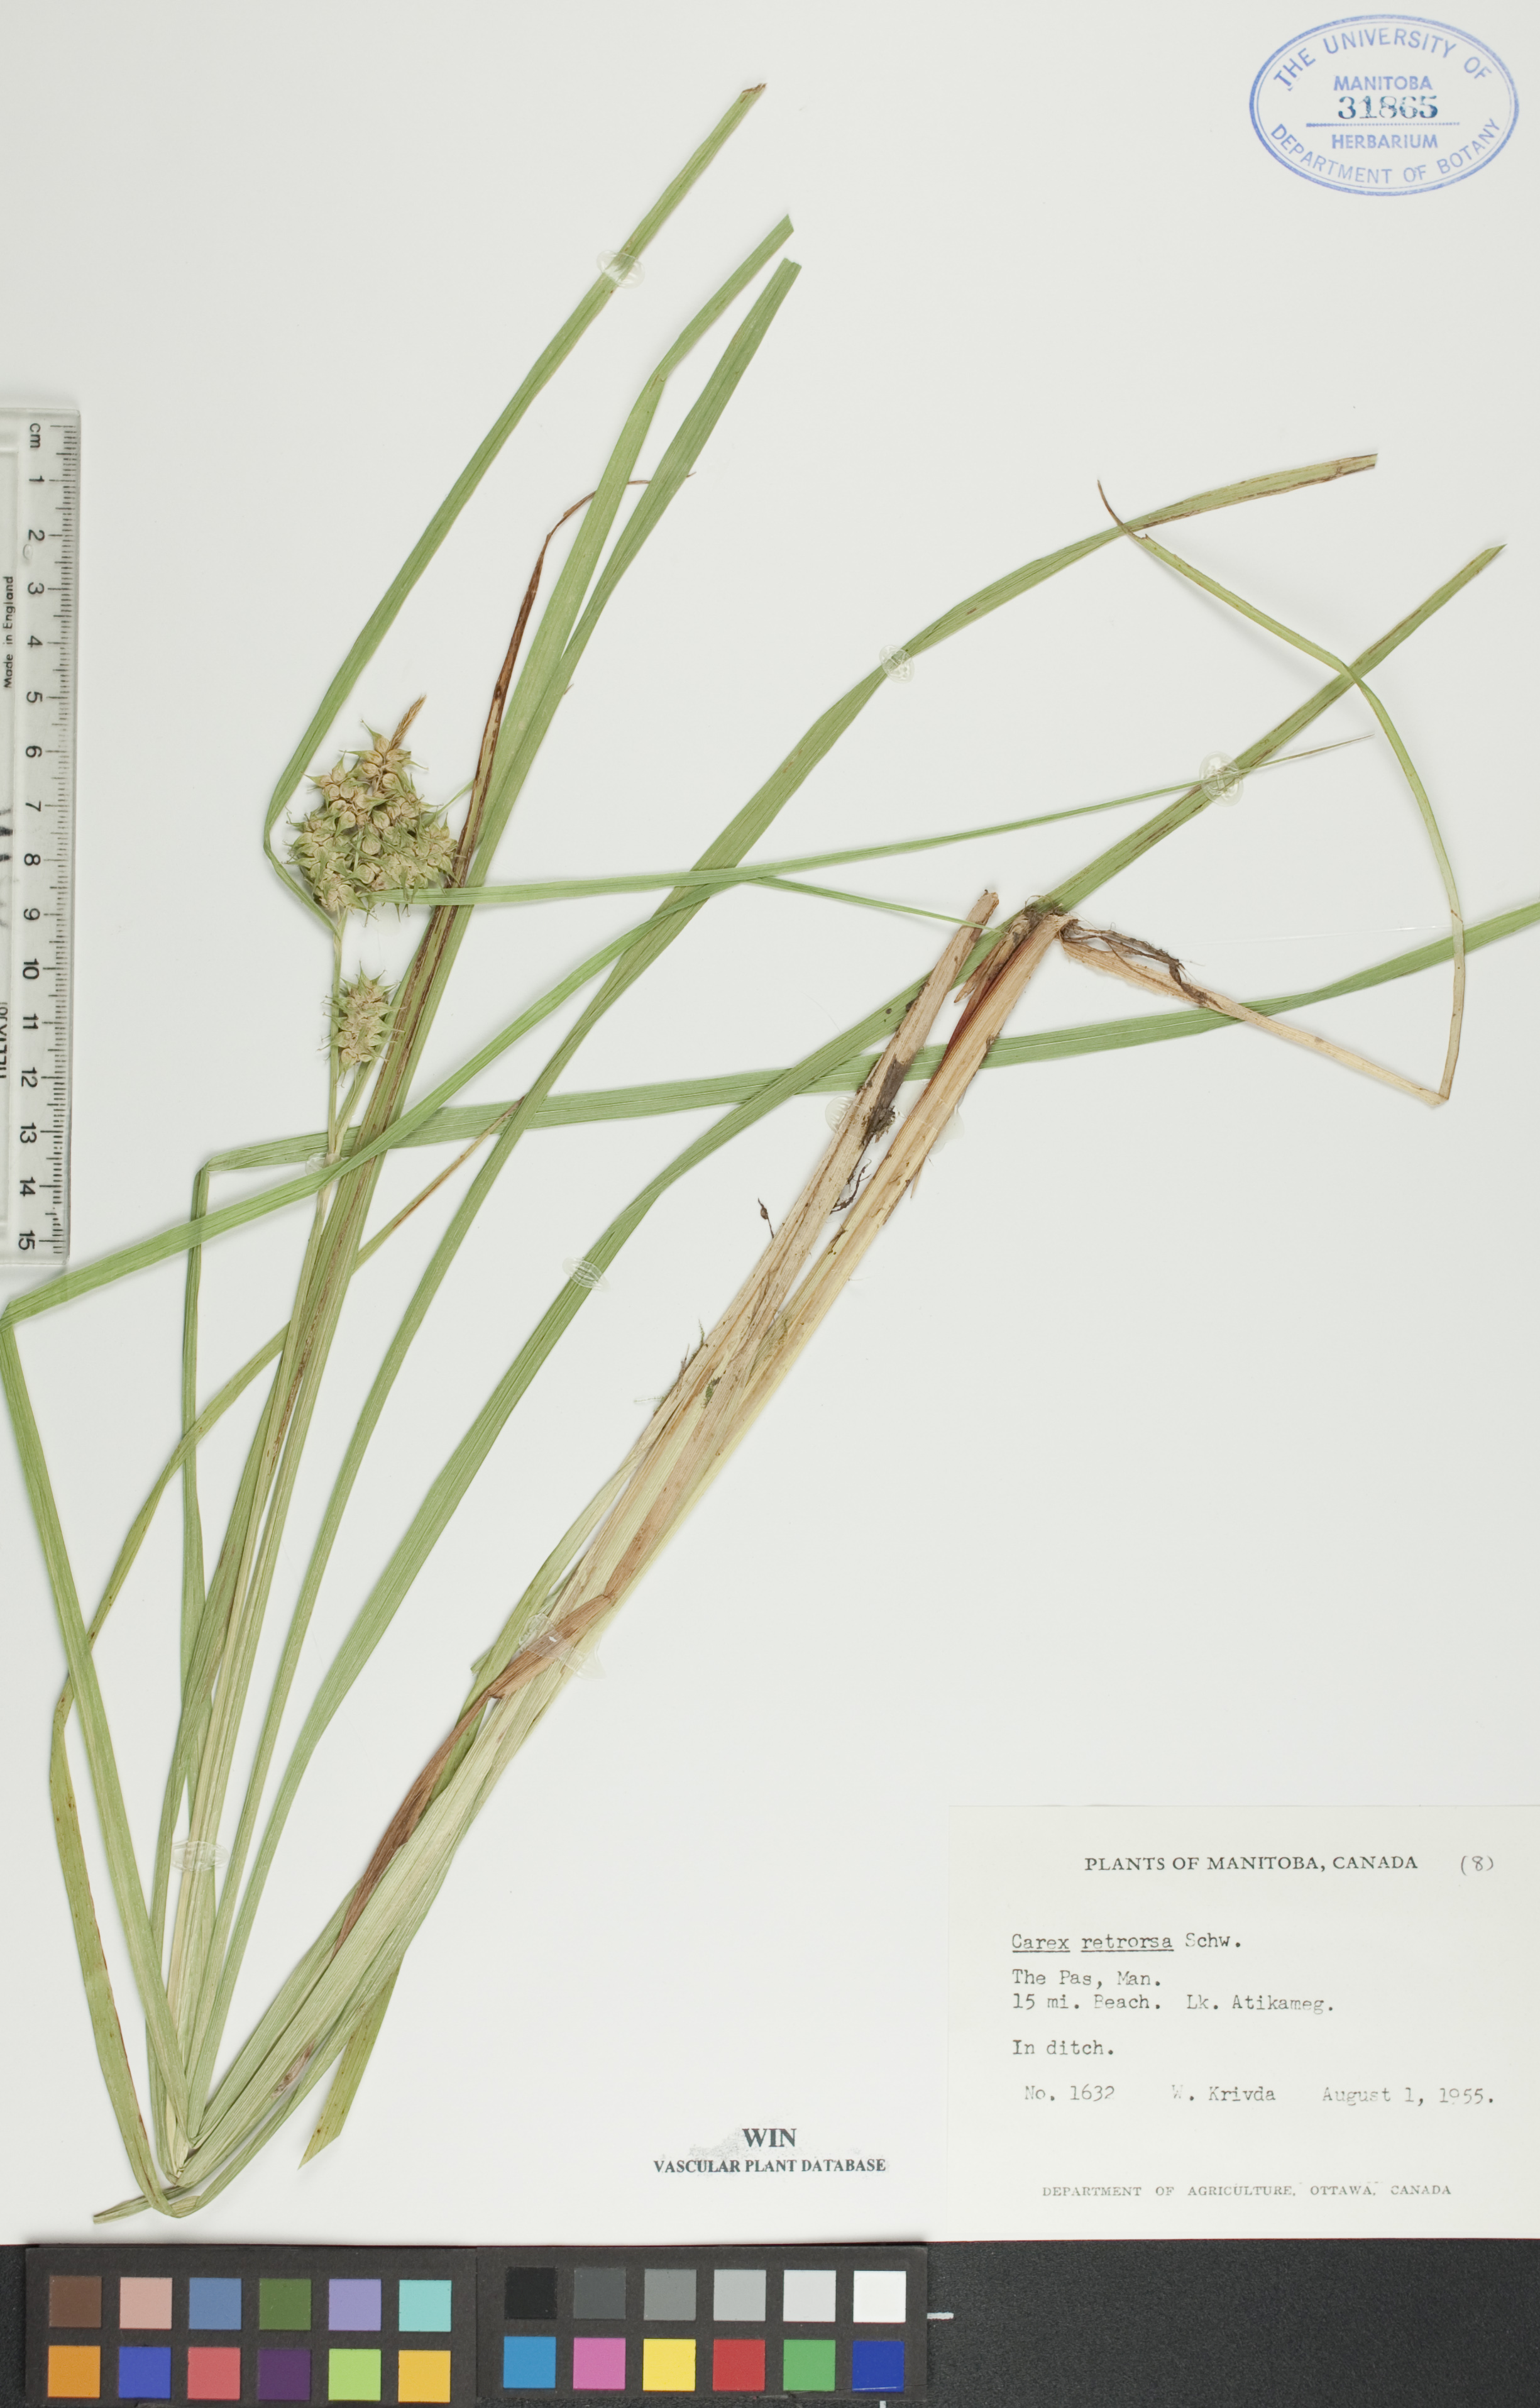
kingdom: Plantae
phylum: Tracheophyta
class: Liliopsida
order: Poales
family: Cyperaceae
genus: Carex
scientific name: Carex retrorsa
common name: Knot-sheath sedge
